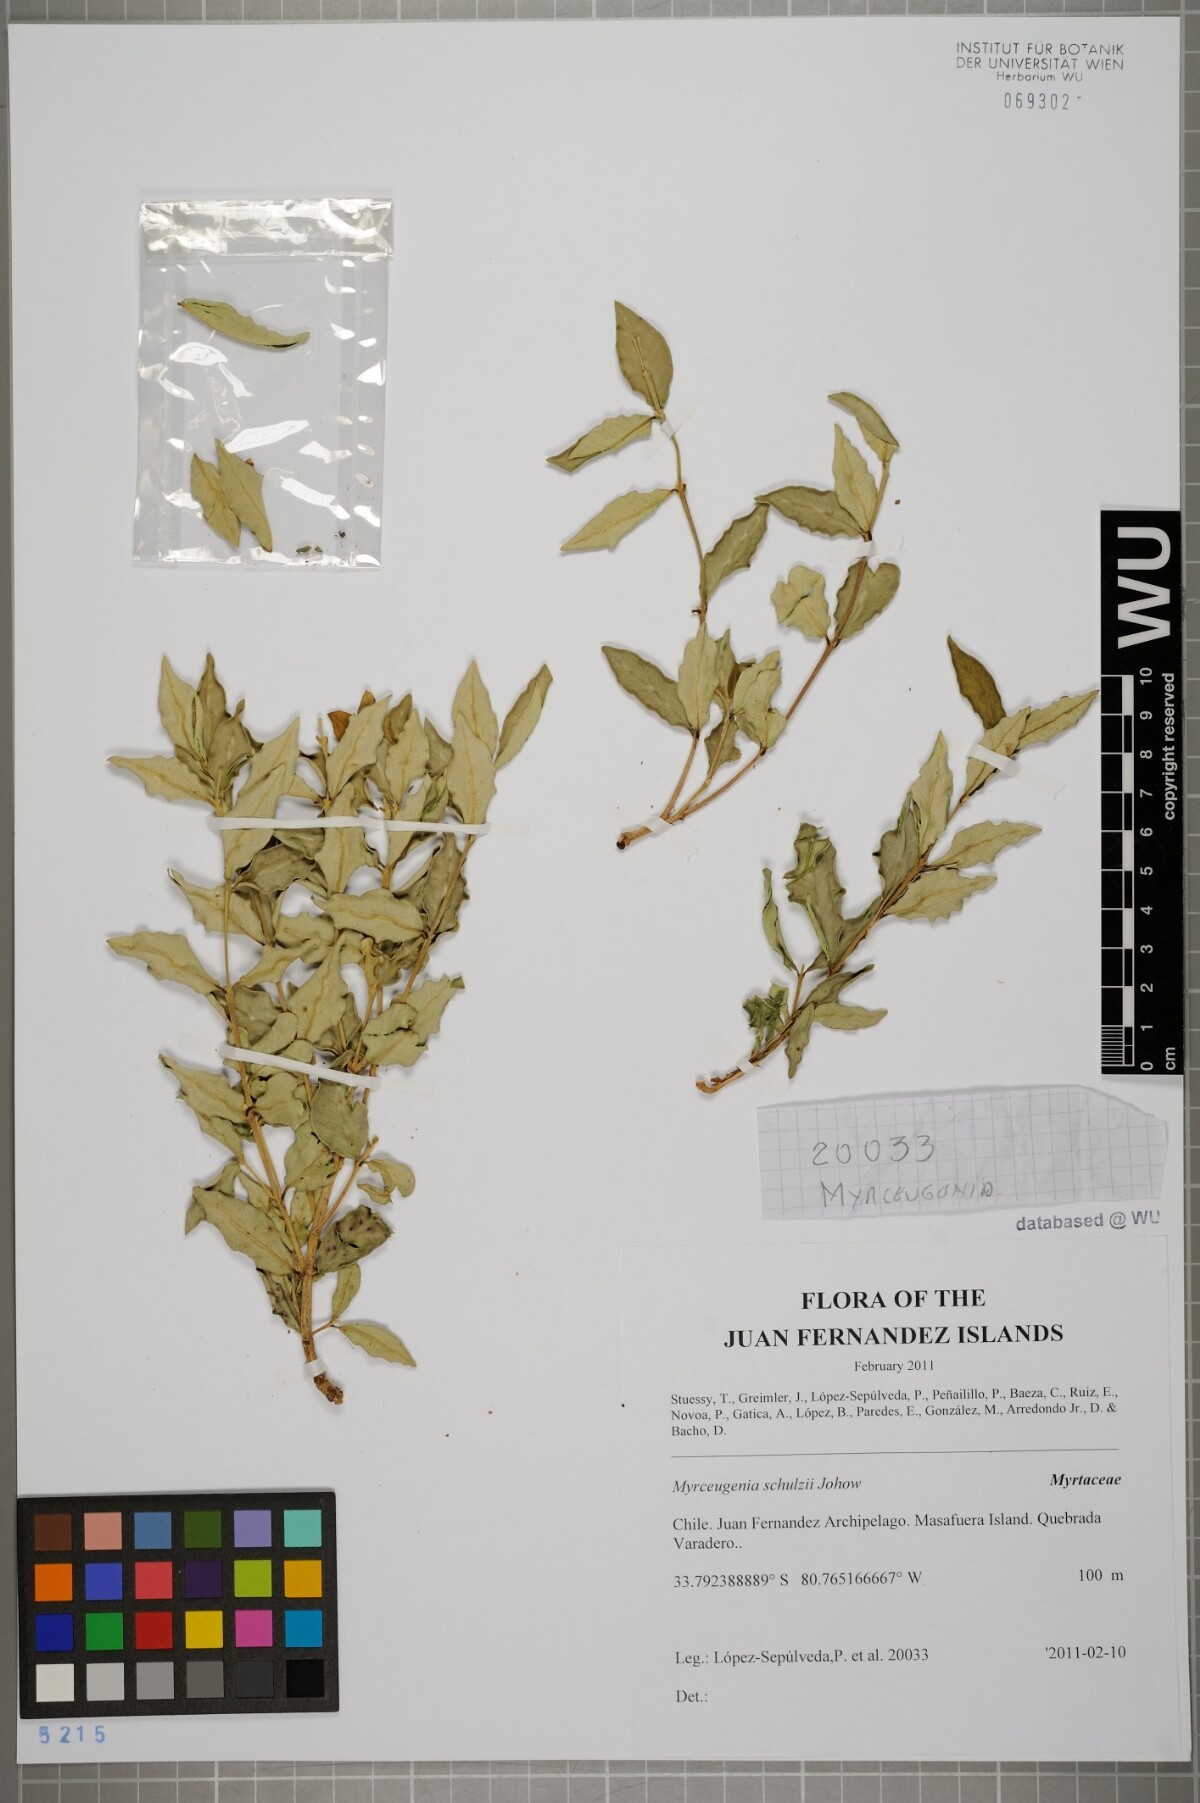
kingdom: Plantae
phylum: Tracheophyta
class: Magnoliopsida
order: Myrtales
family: Myrtaceae
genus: Myrceugenia
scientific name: Myrceugenia schulzei
